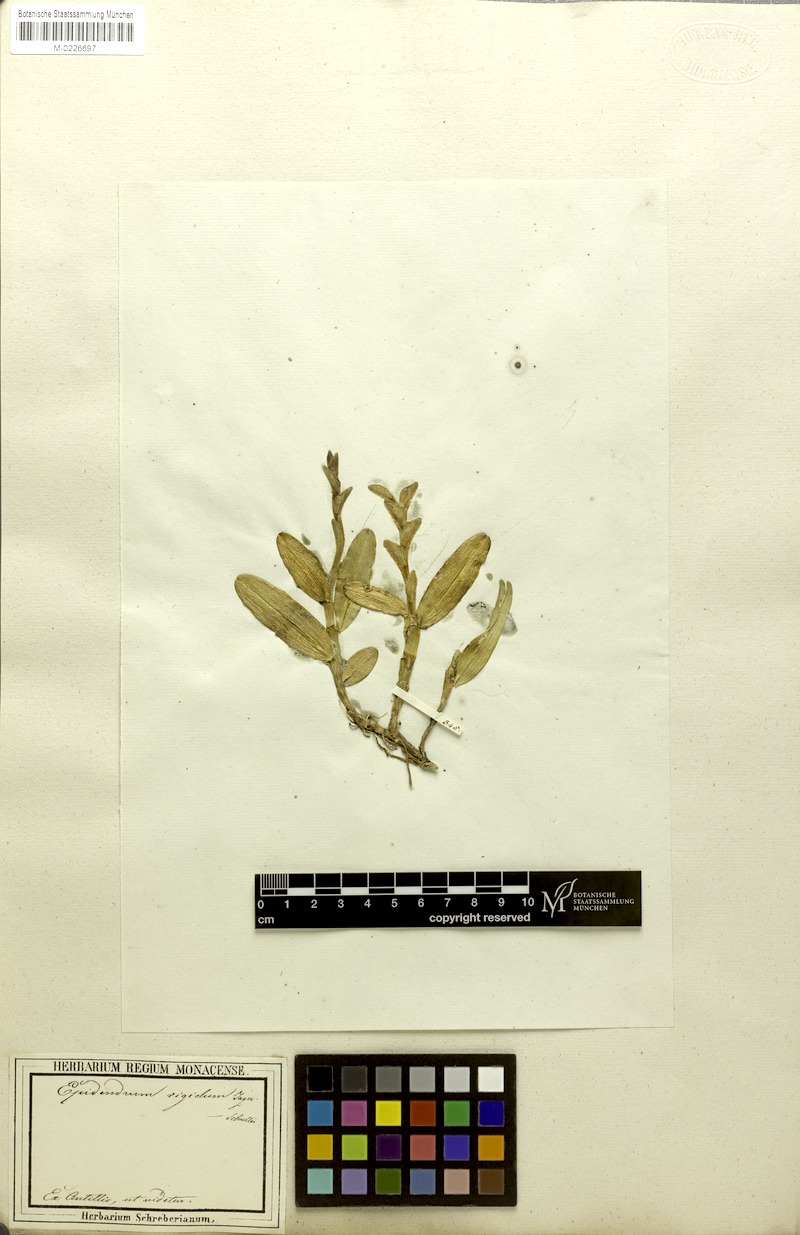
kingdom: Plantae
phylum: Tracheophyta
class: Liliopsida
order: Asparagales
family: Orchidaceae
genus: Epidendrum
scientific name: Epidendrum rigidum
